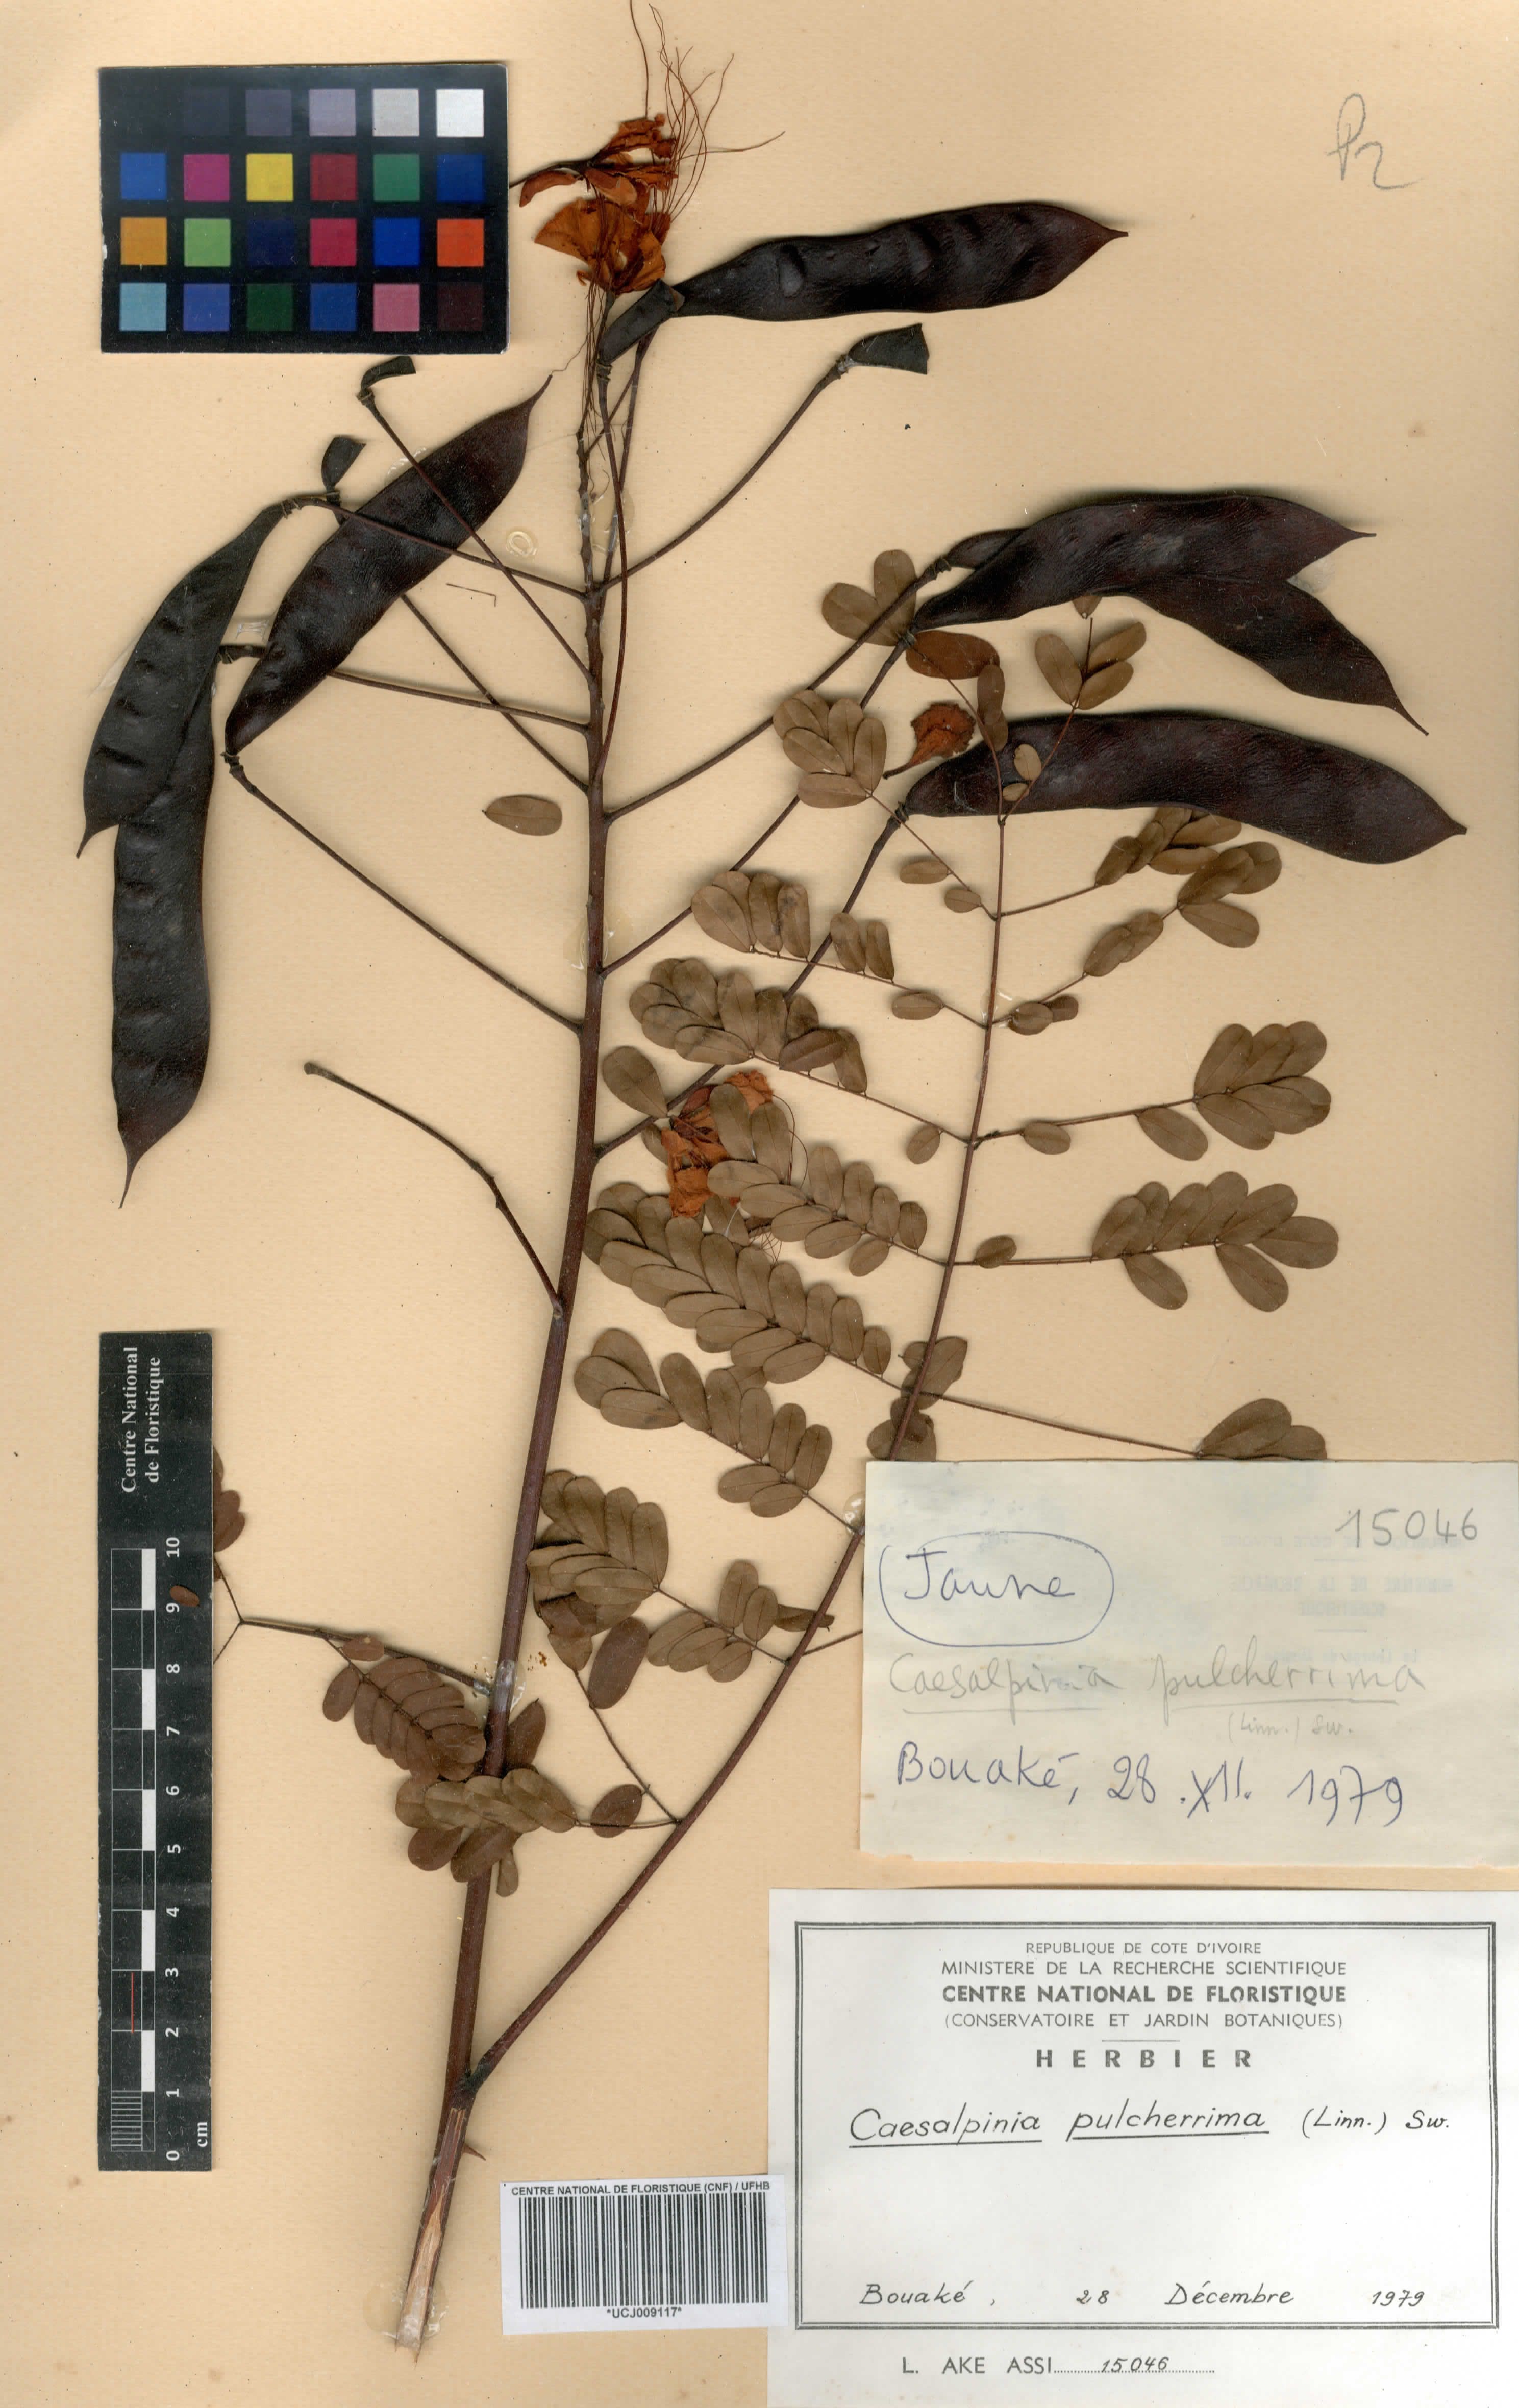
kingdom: Plantae
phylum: Tracheophyta
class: Magnoliopsida
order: Fabales
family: Fabaceae
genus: Caesalpinia
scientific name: Caesalpinia pulcherrima
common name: Pride-of-barbados
